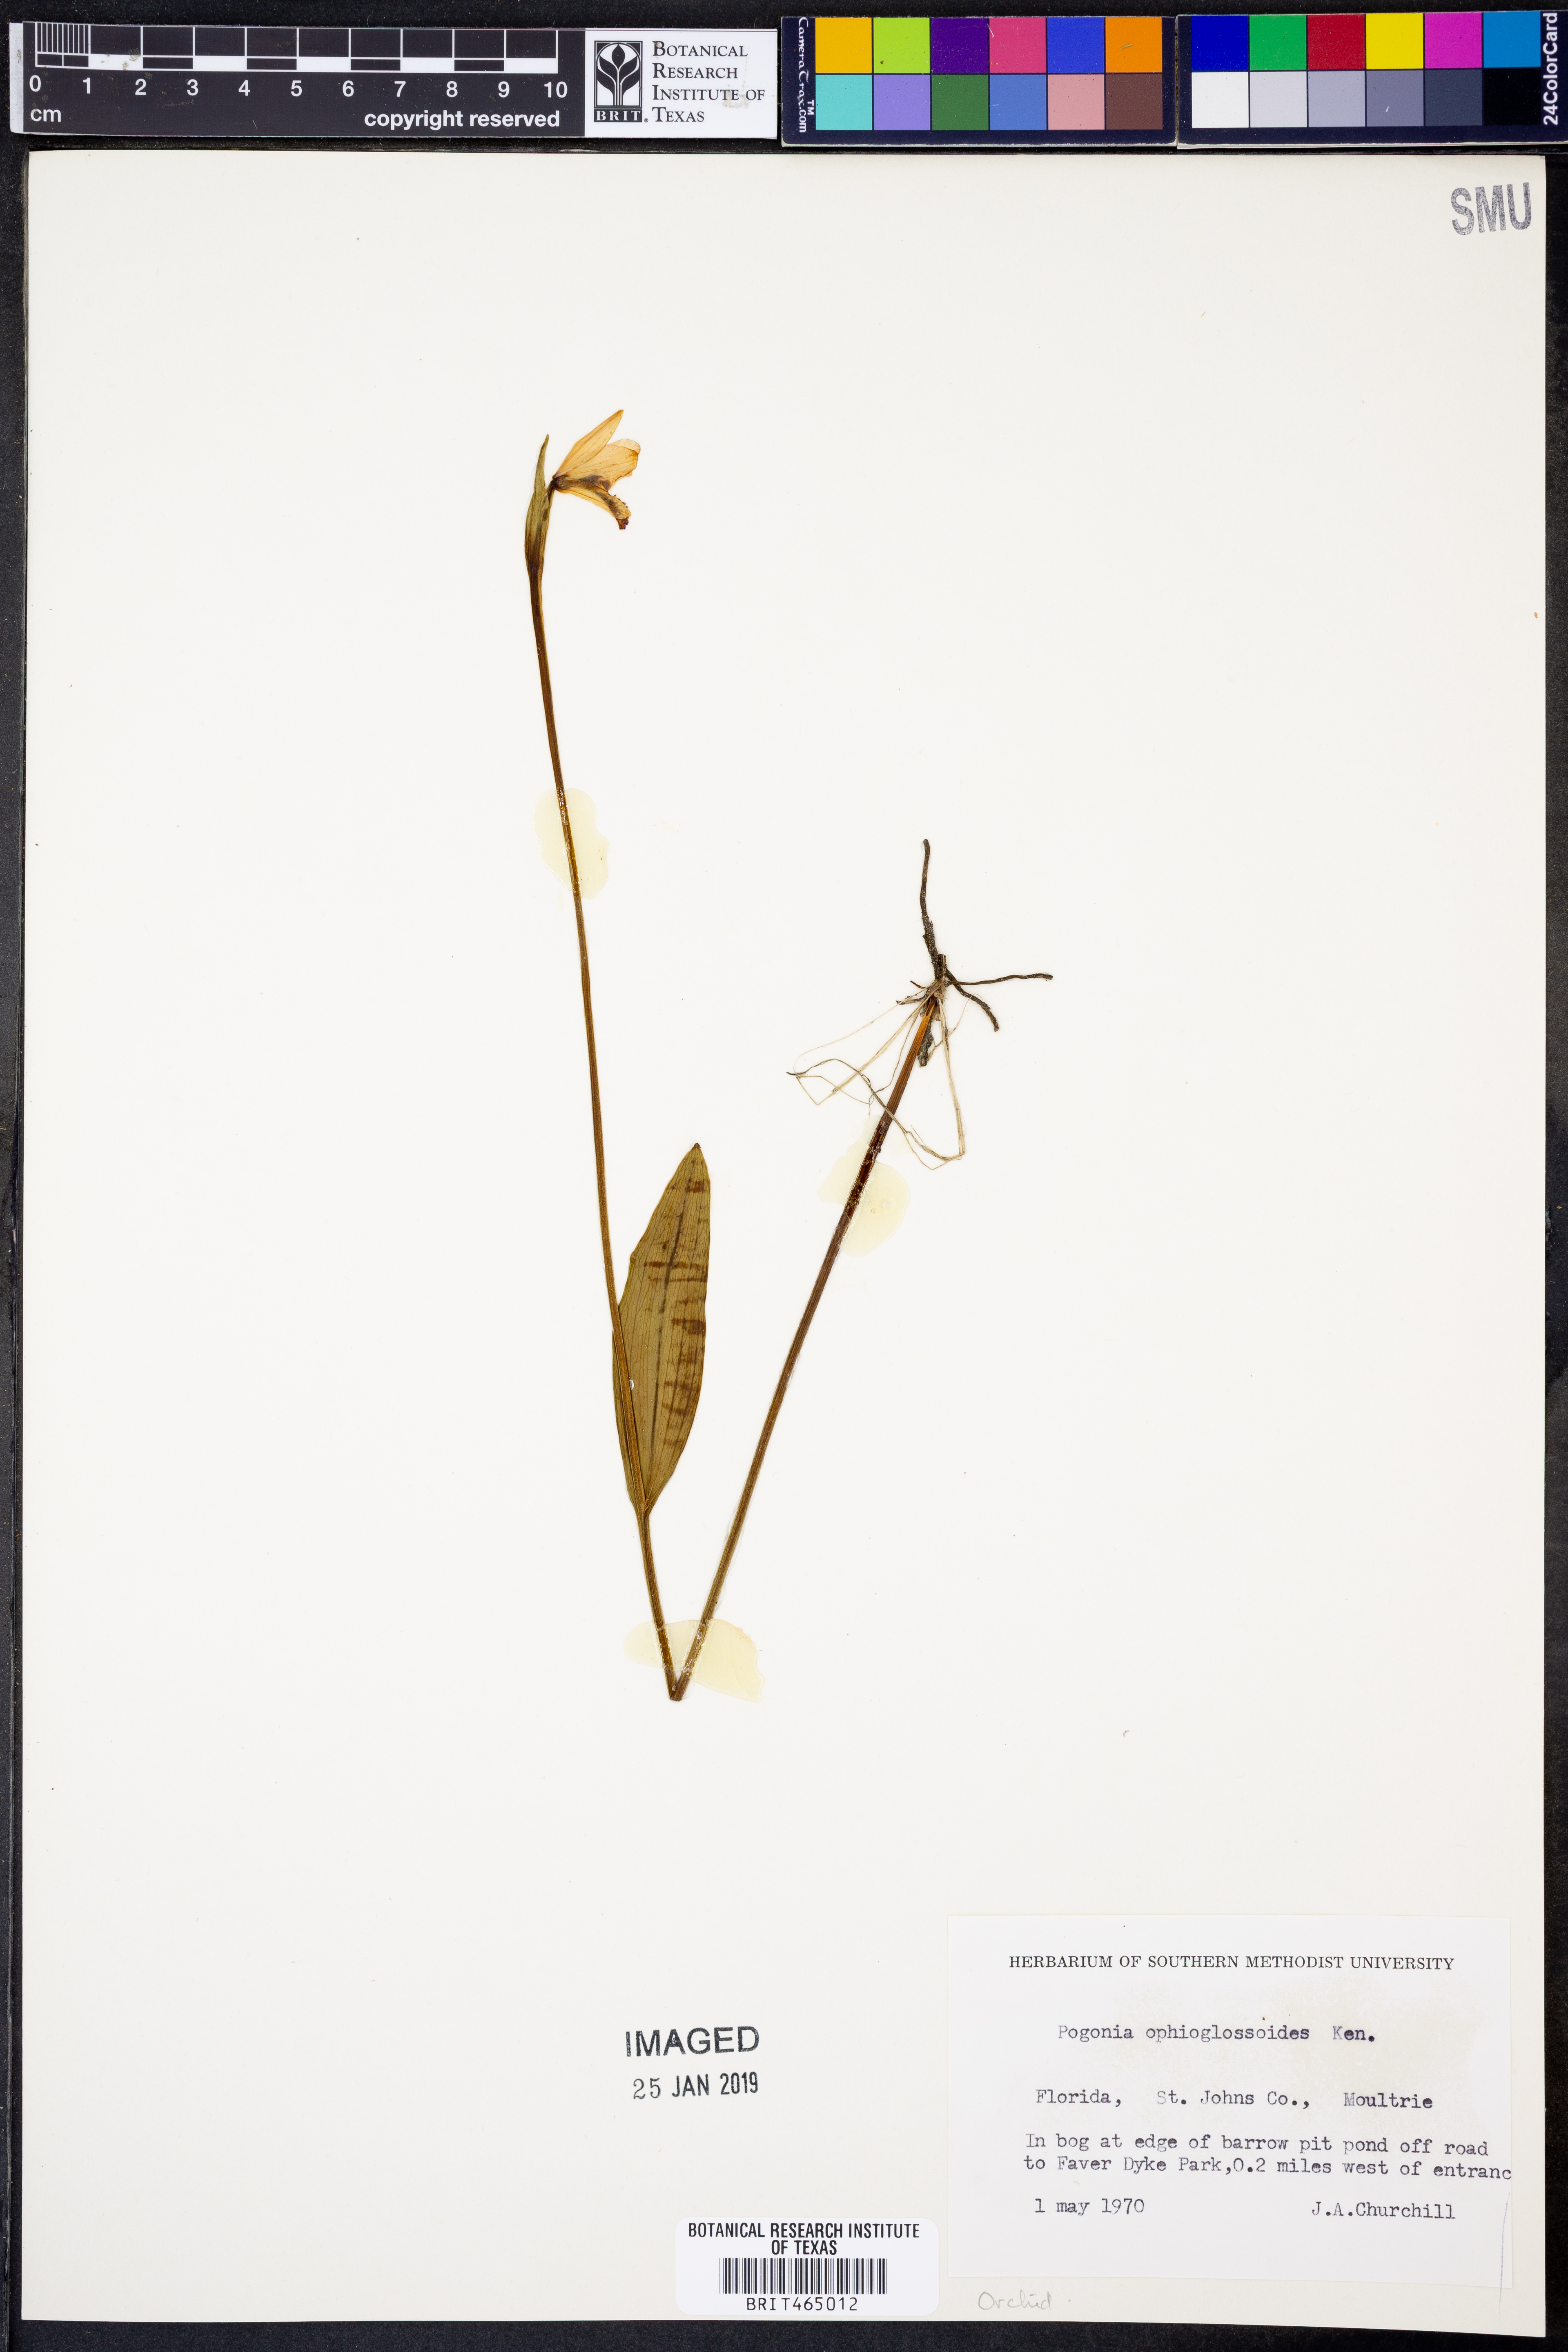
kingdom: Plantae
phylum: Tracheophyta
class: Liliopsida
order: Asparagales
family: Orchidaceae
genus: Pogonia
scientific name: Pogonia ophioglossoides
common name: Rose pogonia
